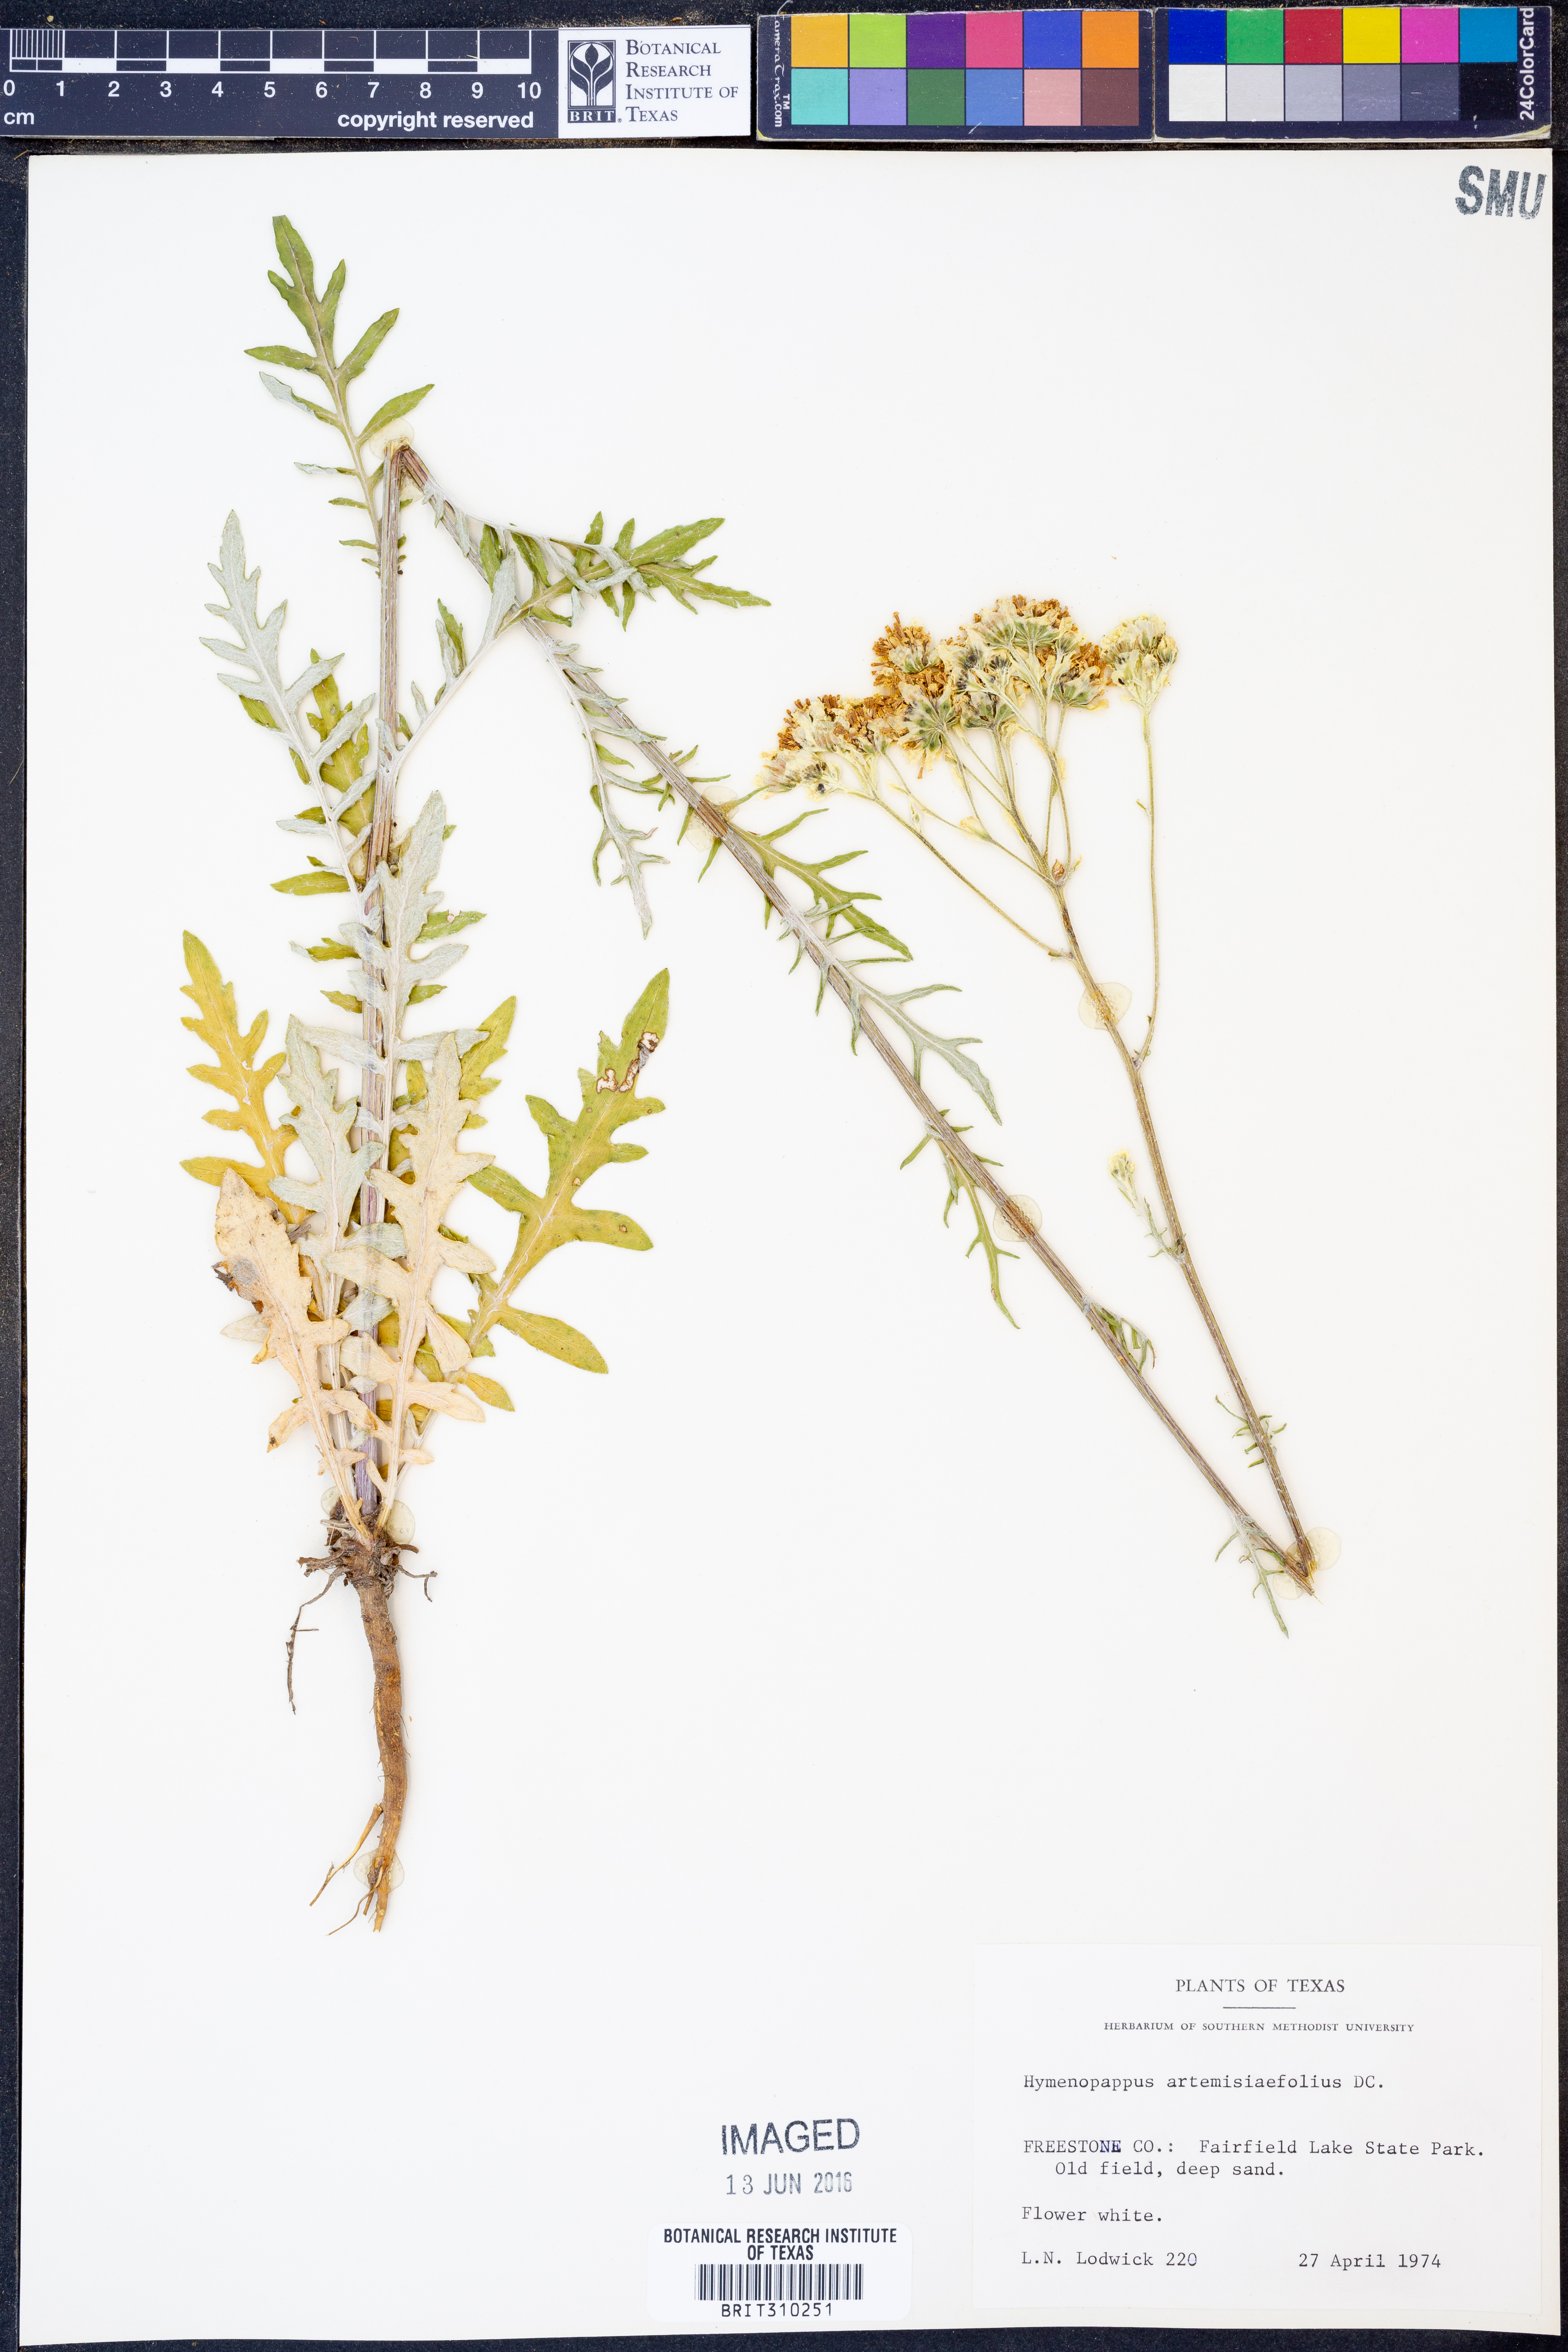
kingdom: Plantae
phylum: Tracheophyta
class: Magnoliopsida
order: Asterales
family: Asteraceae
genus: Hymenopappus
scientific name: Hymenopappus artemisiifolius
